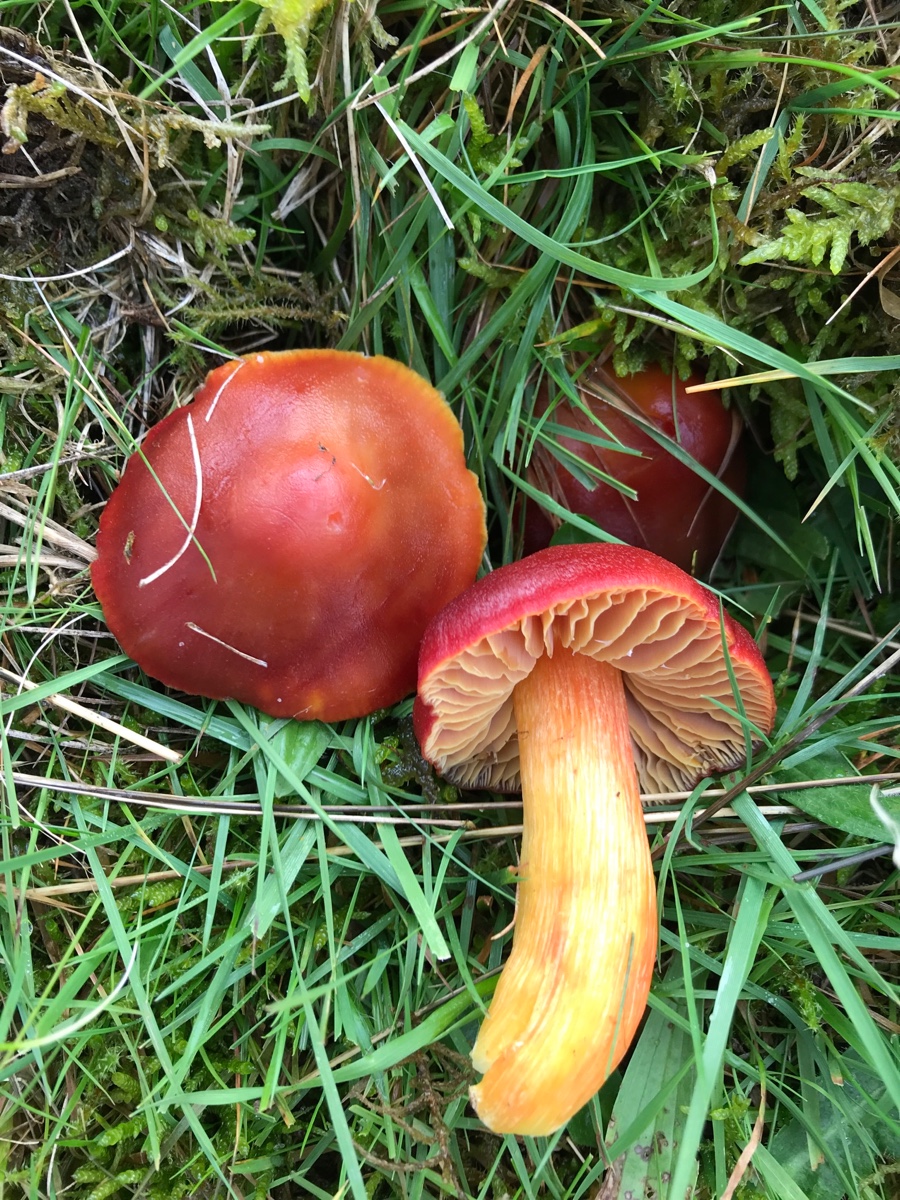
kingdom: Fungi
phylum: Basidiomycota
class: Agaricomycetes
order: Agaricales
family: Hygrophoraceae
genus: Hygrocybe
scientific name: Hygrocybe punicea
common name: skarlagen-vokshat
